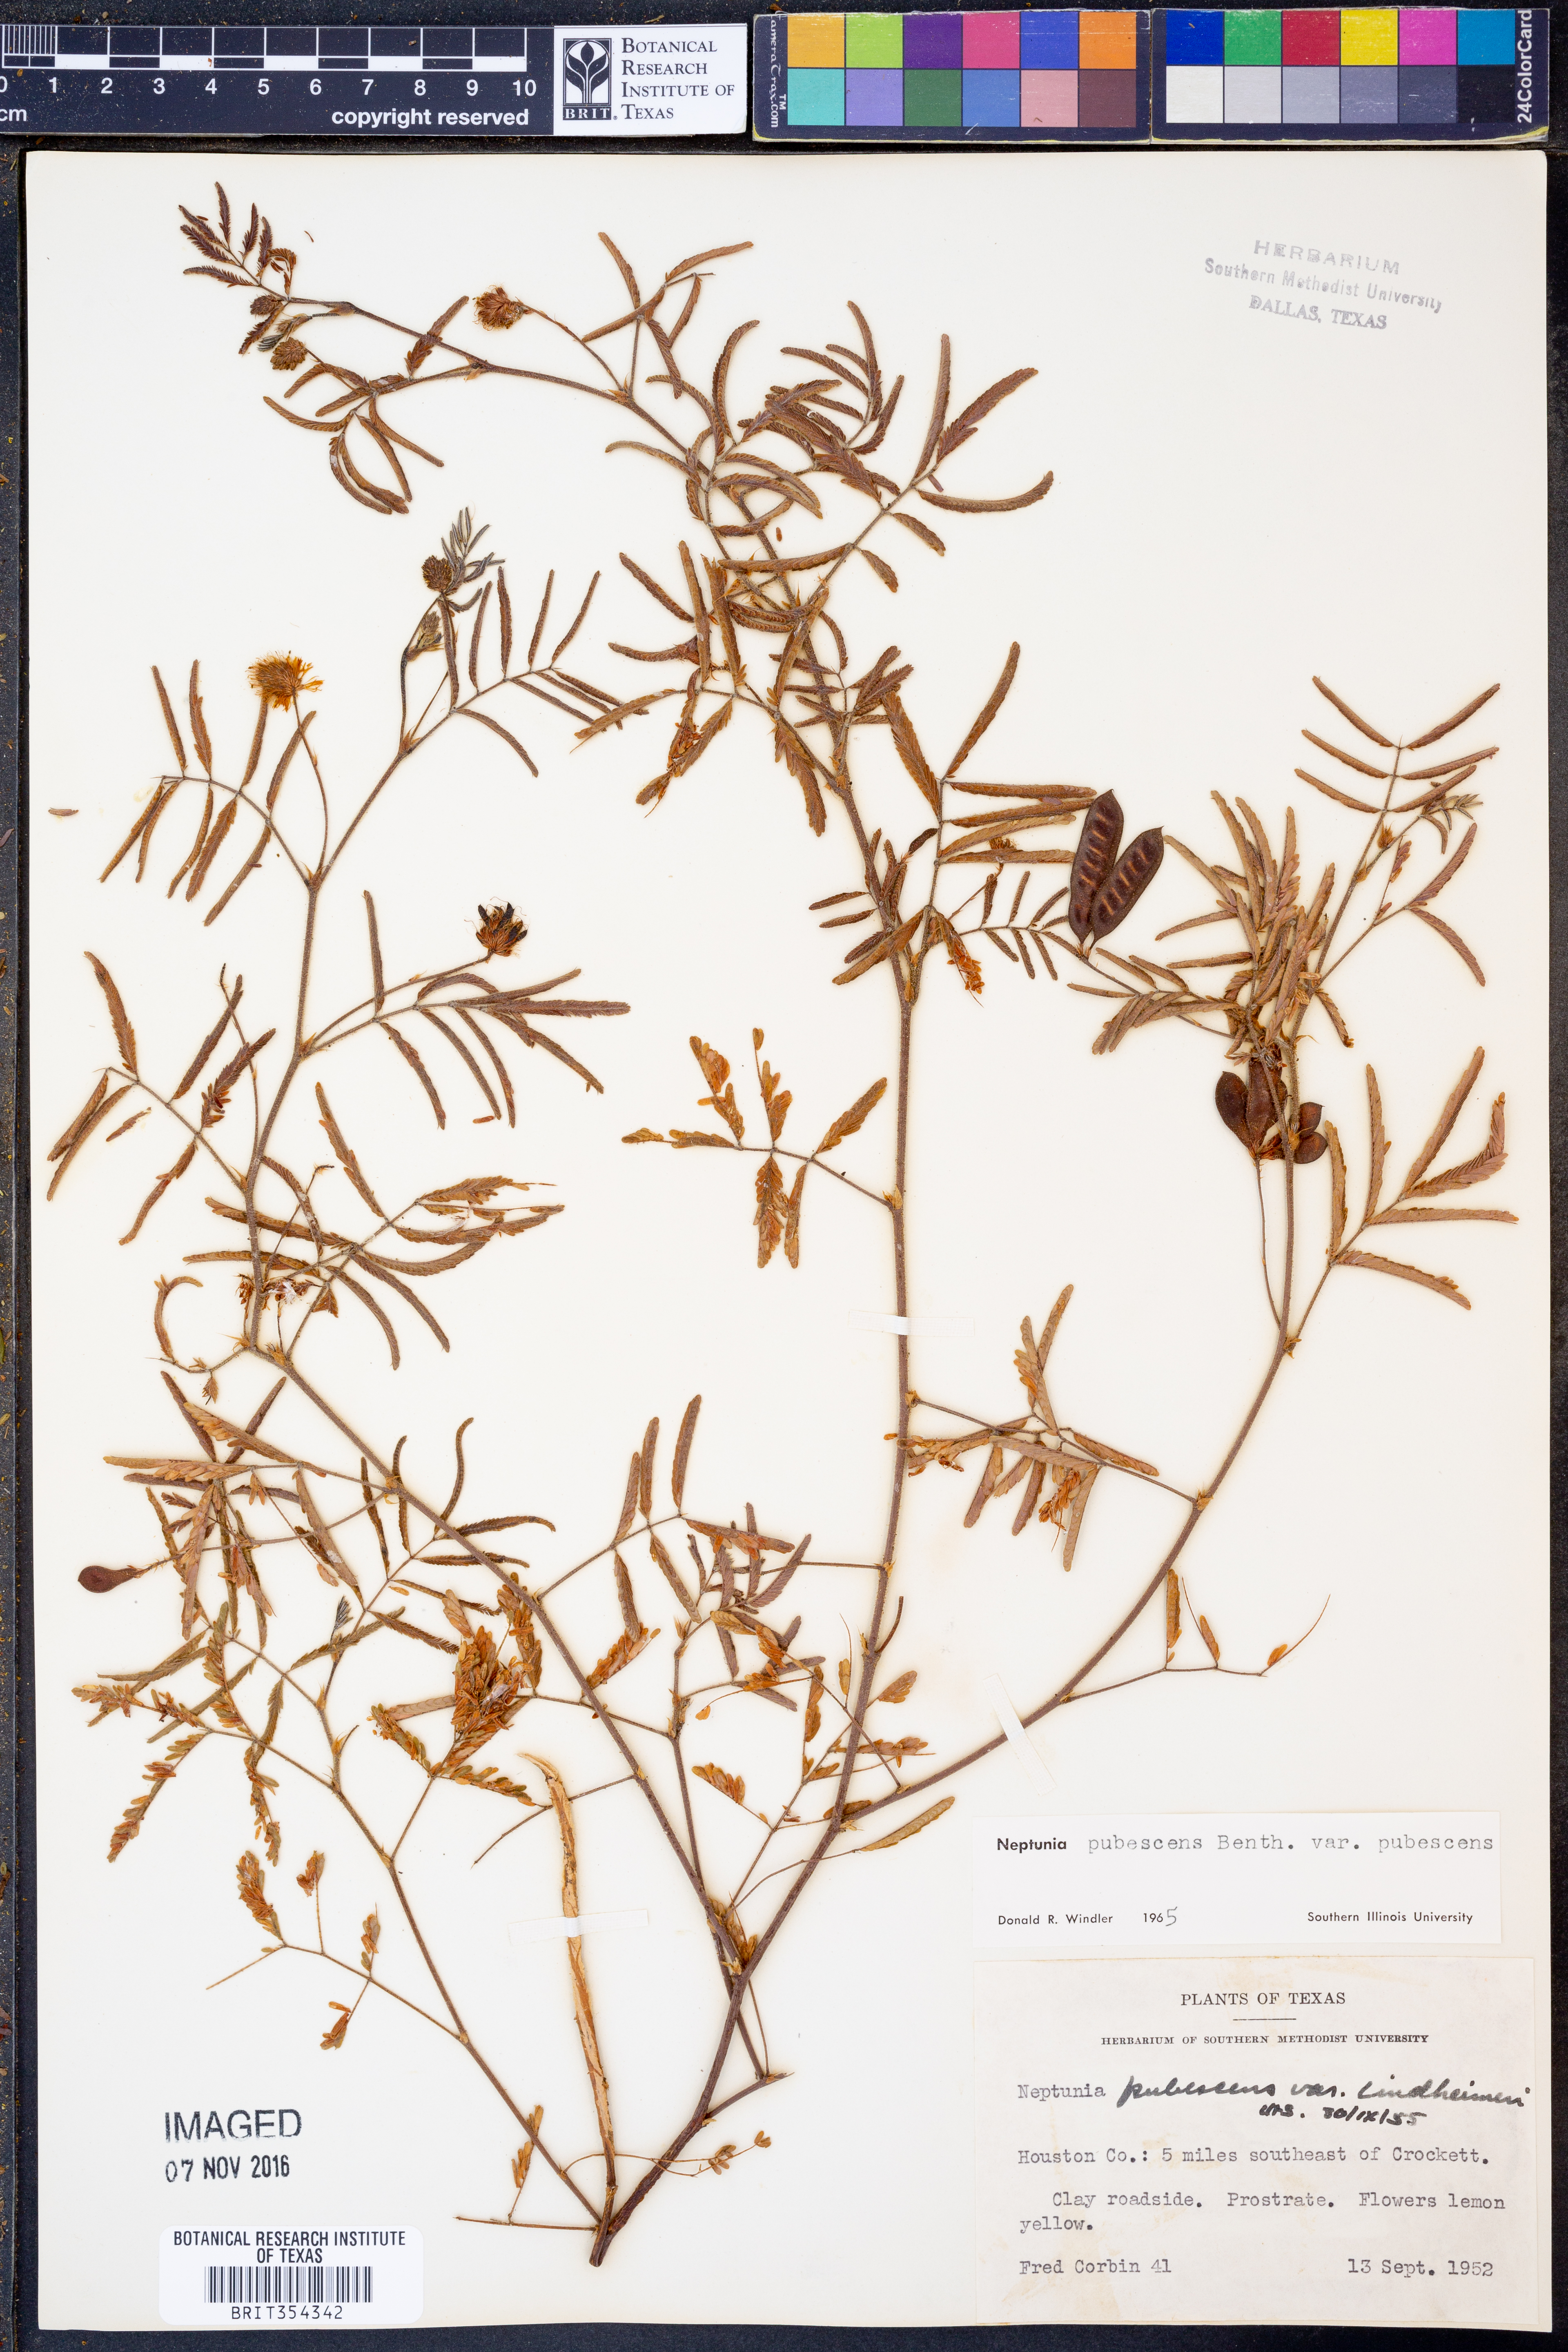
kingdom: Plantae
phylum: Tracheophyta
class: Magnoliopsida
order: Fabales
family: Fabaceae
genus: Neptunia
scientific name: Neptunia pubescens
